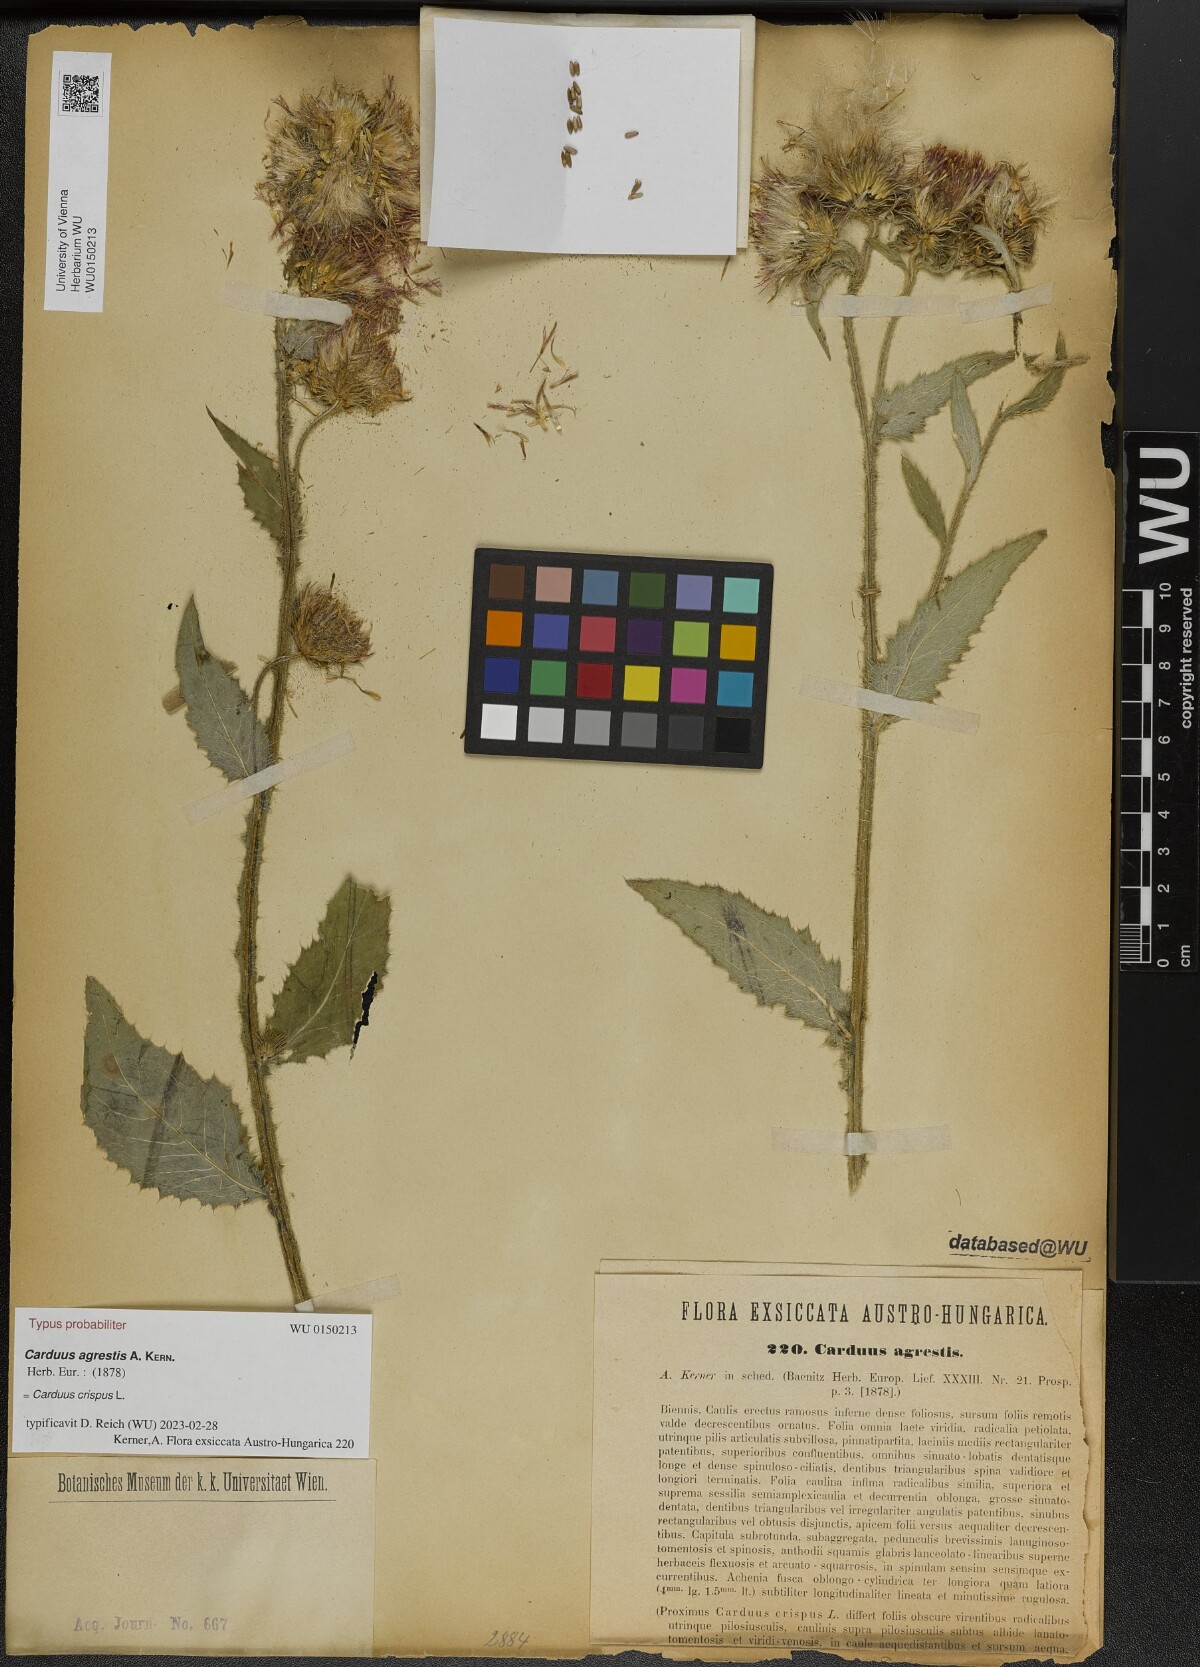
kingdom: Plantae
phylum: Tracheophyta
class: Magnoliopsida
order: Asterales
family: Asteraceae
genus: Carduus
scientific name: Carduus crispus
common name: Welted thistle
